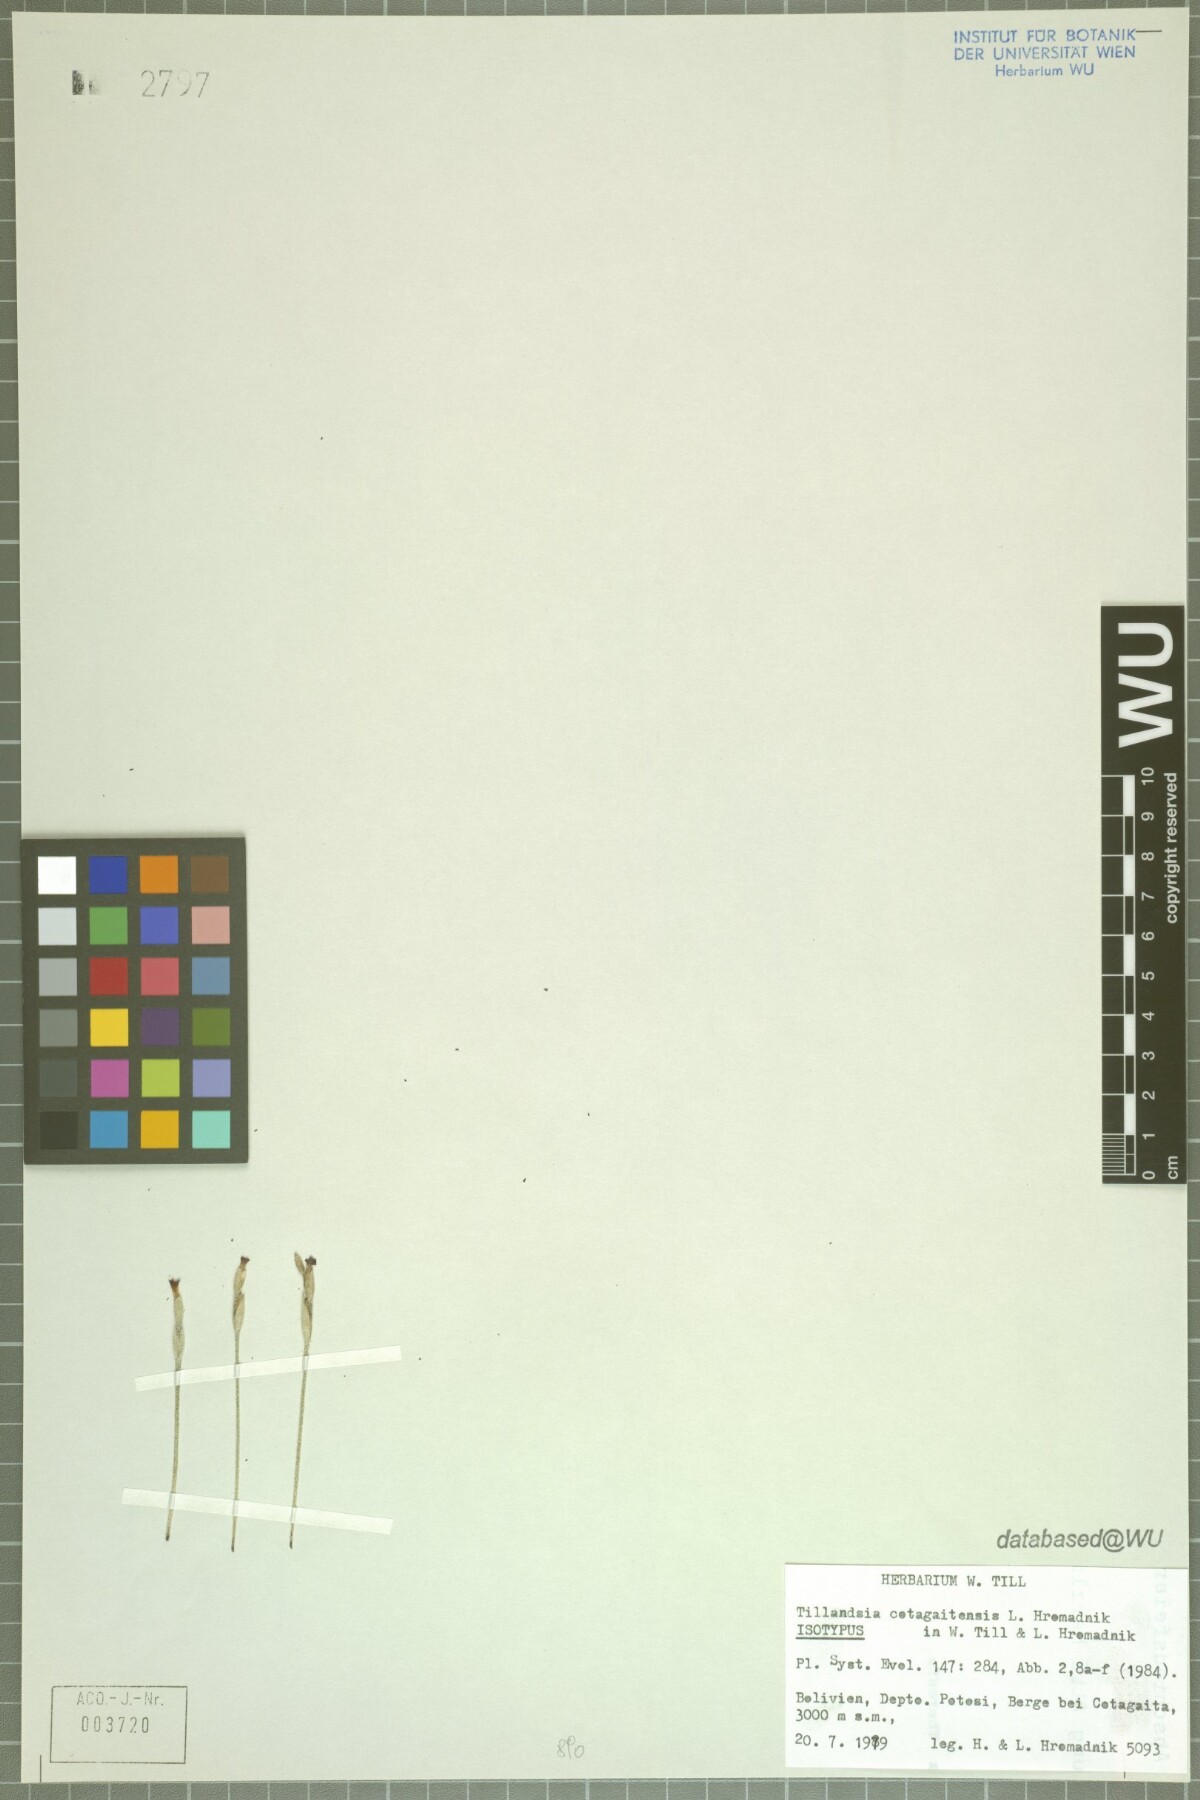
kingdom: Plantae
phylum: Tracheophyta
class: Liliopsida
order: Poales
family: Bromeliaceae
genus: Tillandsia
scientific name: Tillandsia cotagaitensis
